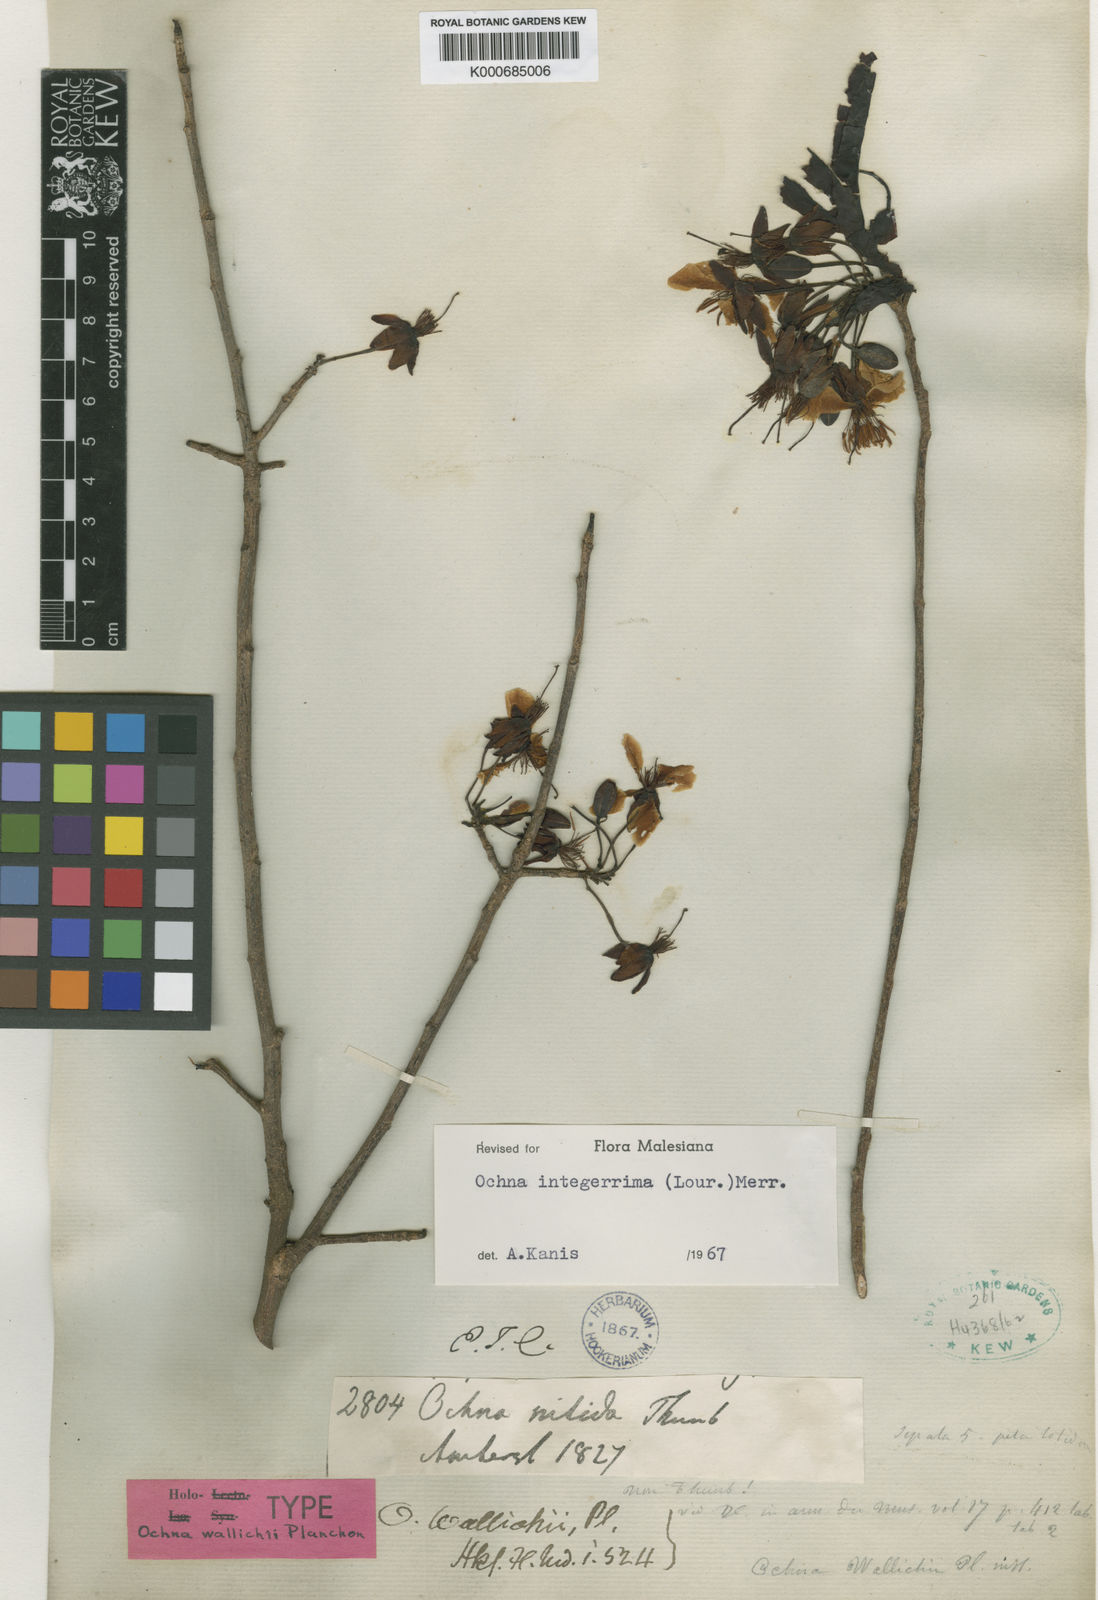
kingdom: Plantae
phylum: Tracheophyta
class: Magnoliopsida
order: Malpighiales
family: Ochnaceae
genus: Ochna
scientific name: Ochna integerrima
